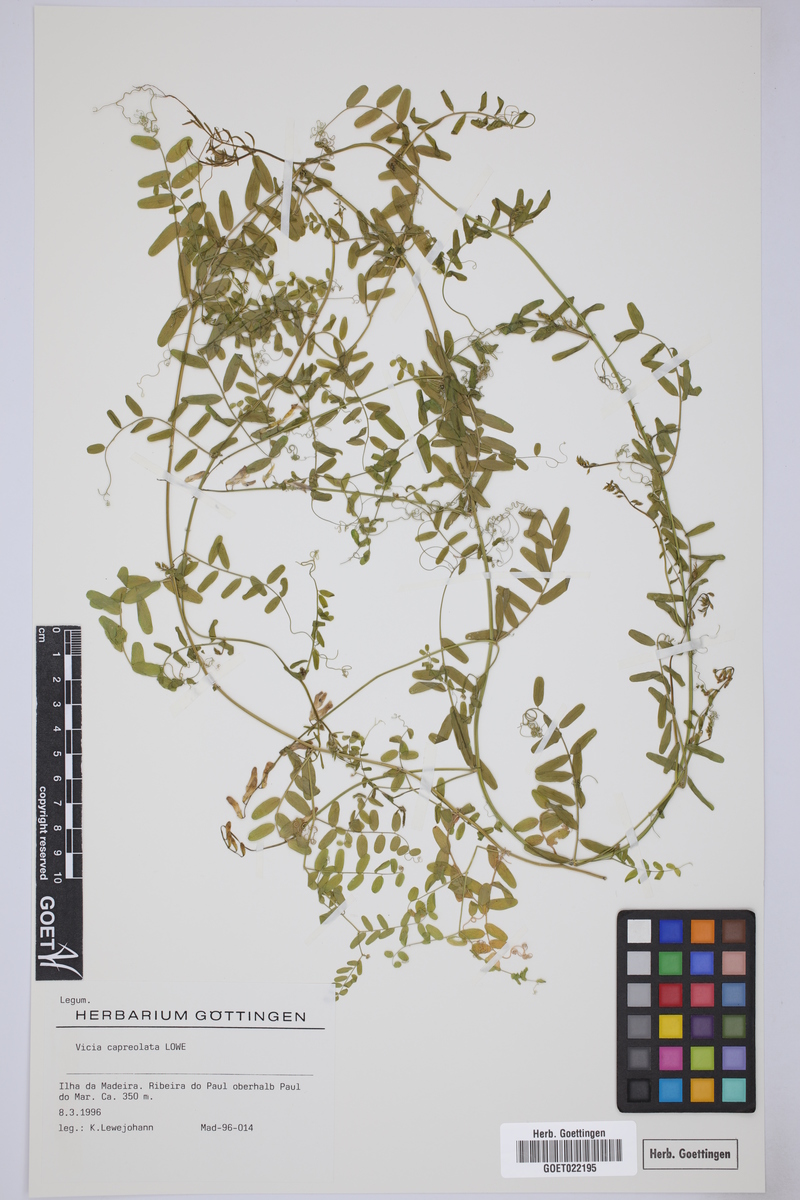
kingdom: Plantae
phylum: Tracheophyta
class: Magnoliopsida
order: Fabales
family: Fabaceae
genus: Vicia
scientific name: Vicia capreolata
